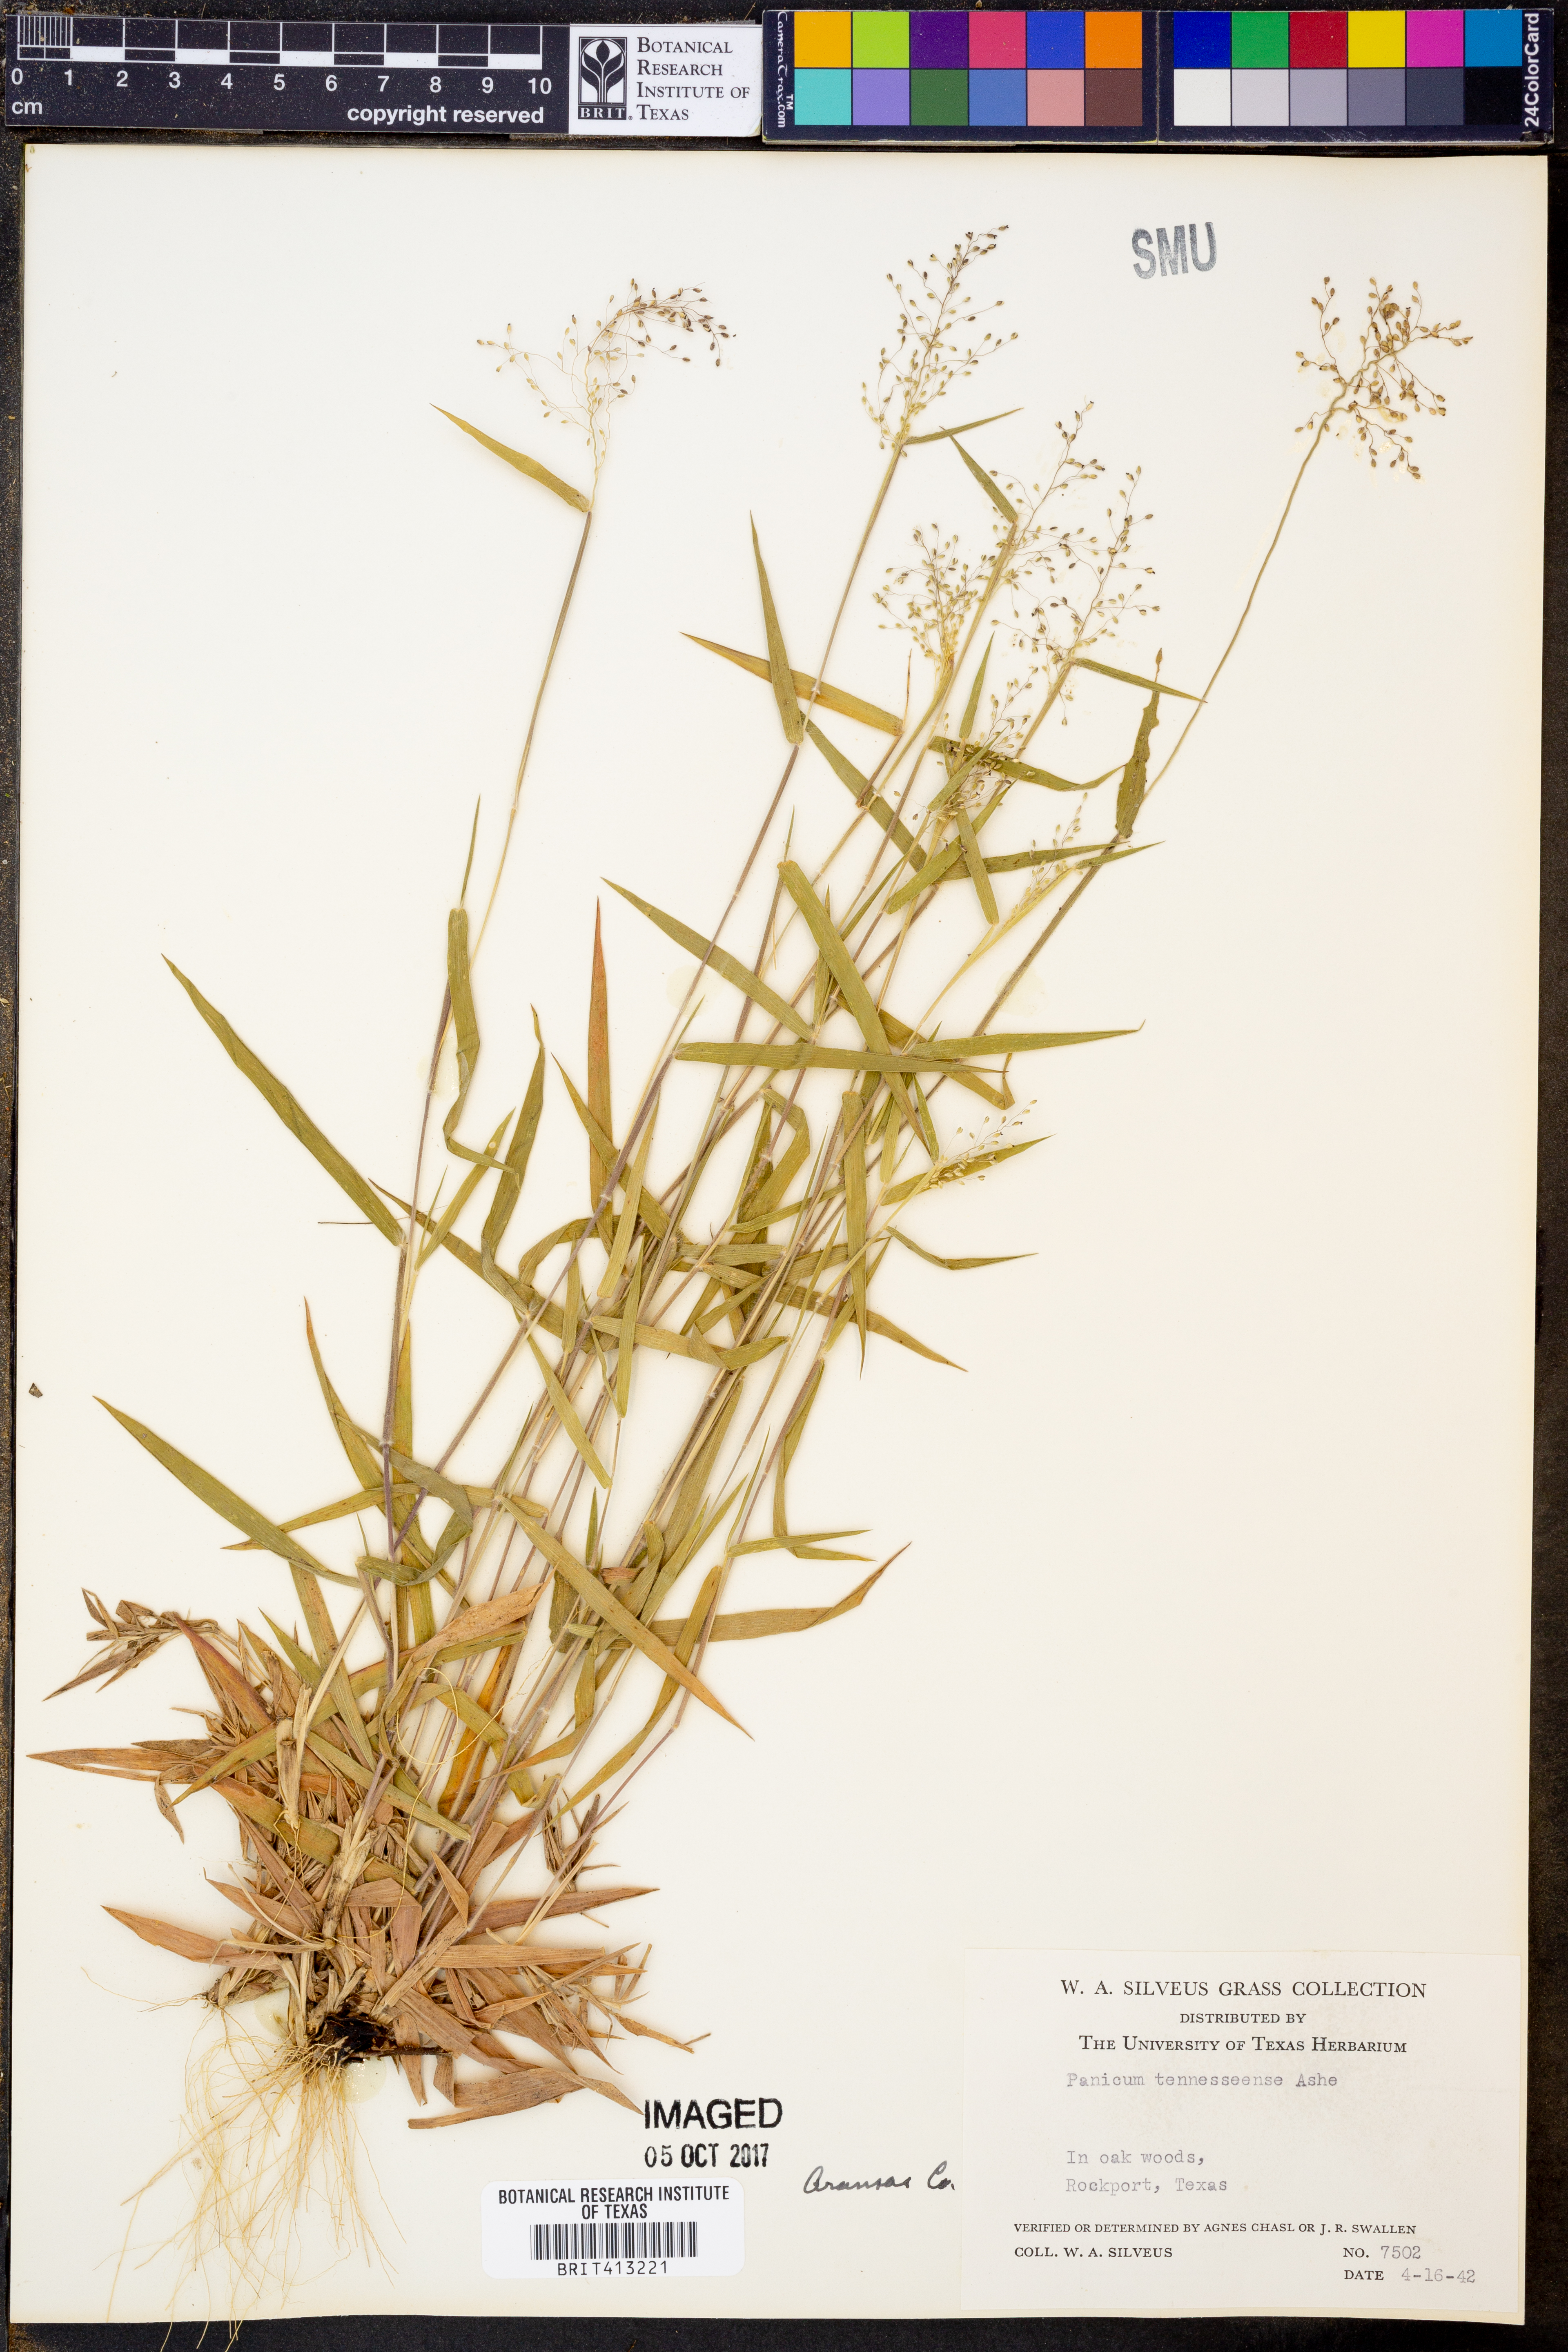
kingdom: Plantae
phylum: Tracheophyta
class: Liliopsida
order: Poales
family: Poaceae
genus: Dichanthelium
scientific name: Dichanthelium lanuginosum
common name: Woolly panicgrass
